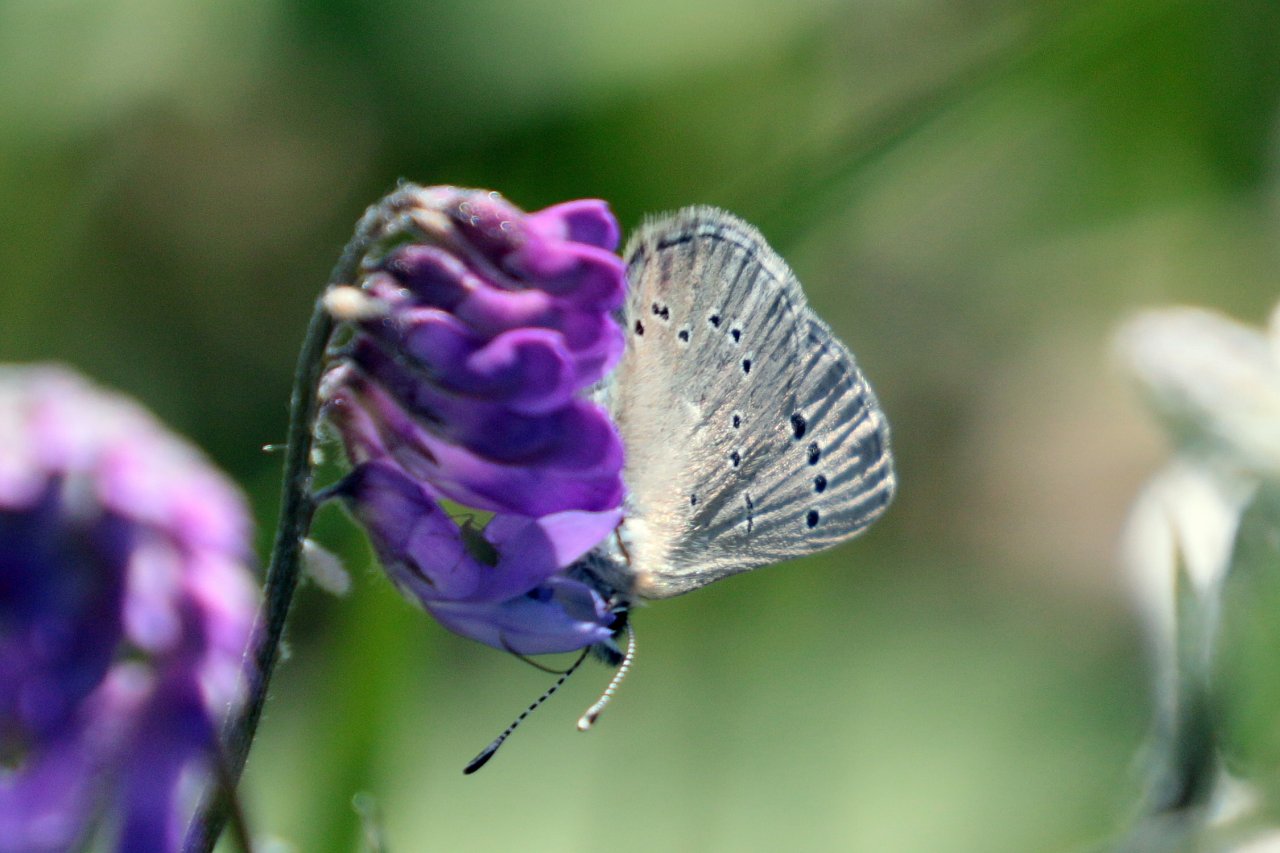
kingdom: Animalia
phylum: Arthropoda
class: Insecta
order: Lepidoptera
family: Lycaenidae
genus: Glaucopsyche
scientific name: Glaucopsyche lygdamus
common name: Silvery Blue
